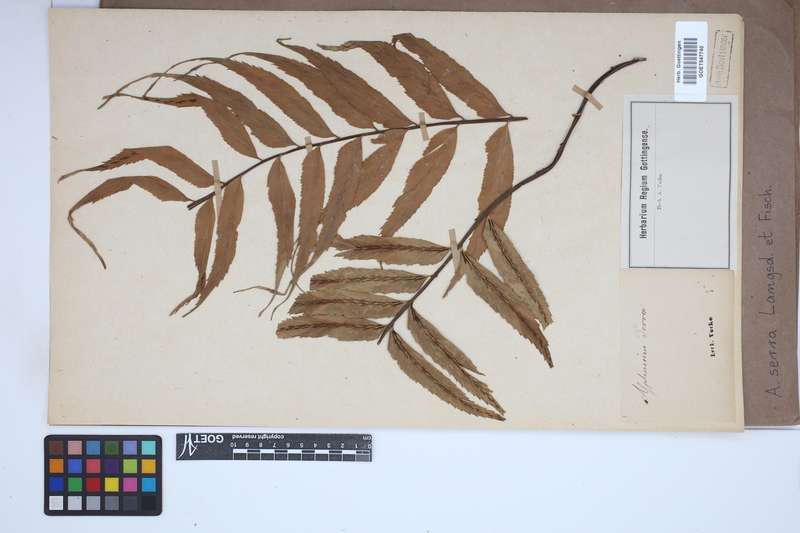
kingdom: Plantae
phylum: Tracheophyta
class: Polypodiopsida
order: Polypodiales
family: Aspleniaceae
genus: Asplenium
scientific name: Asplenium serra
